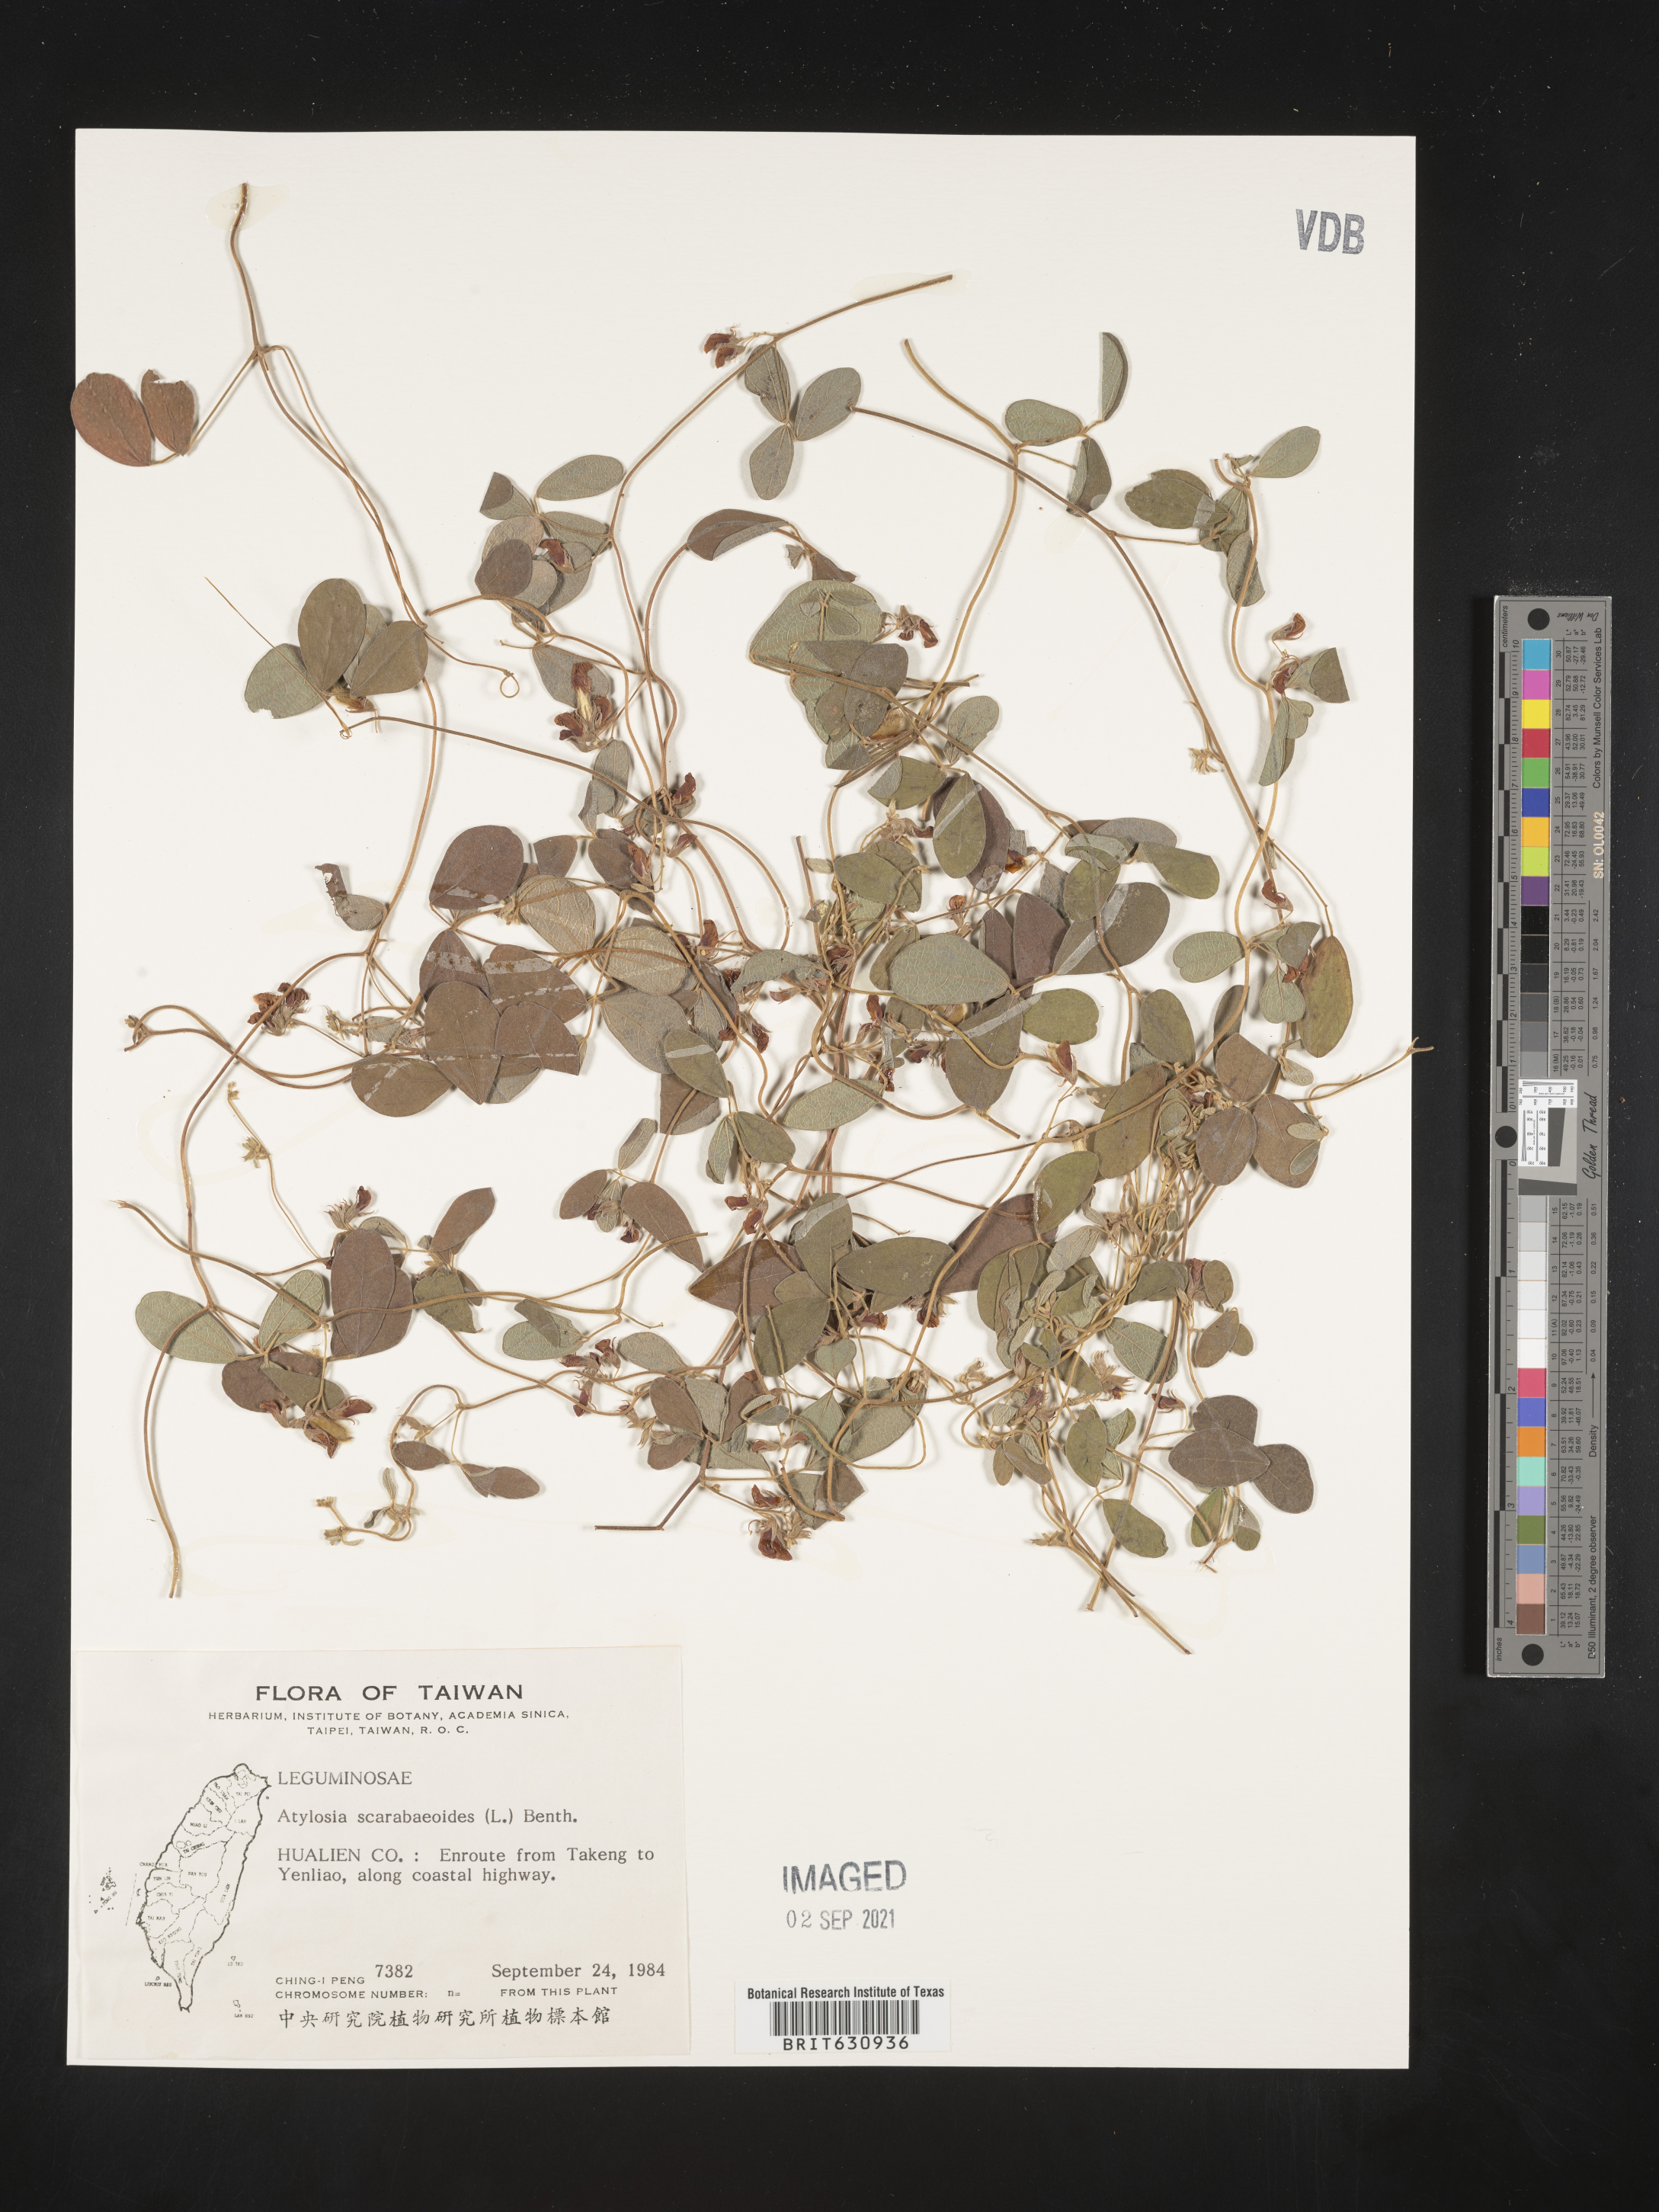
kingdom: Plantae
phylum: Tracheophyta
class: Magnoliopsida
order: Fabales
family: Fabaceae
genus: Cajanus
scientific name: Cajanus
